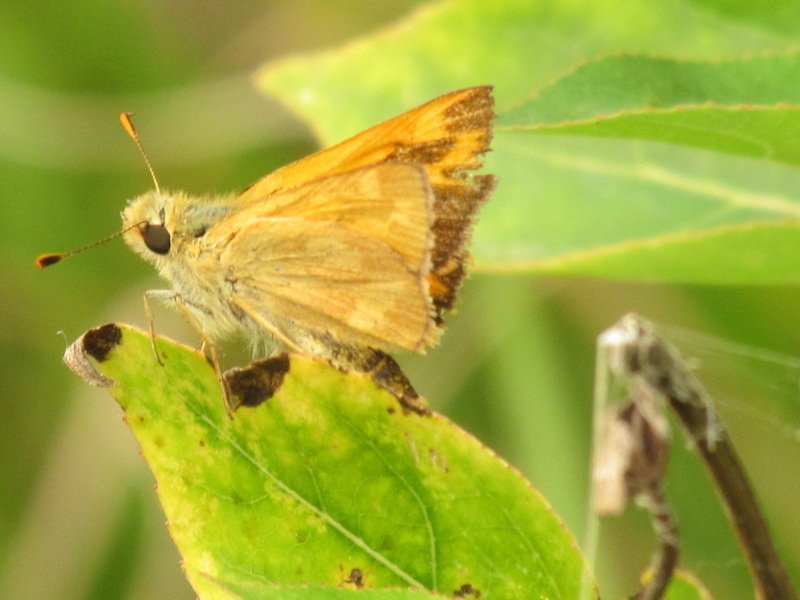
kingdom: Animalia
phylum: Arthropoda
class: Insecta
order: Lepidoptera
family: Hesperiidae
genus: Polites
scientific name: Polites
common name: Long Dash Skipper
